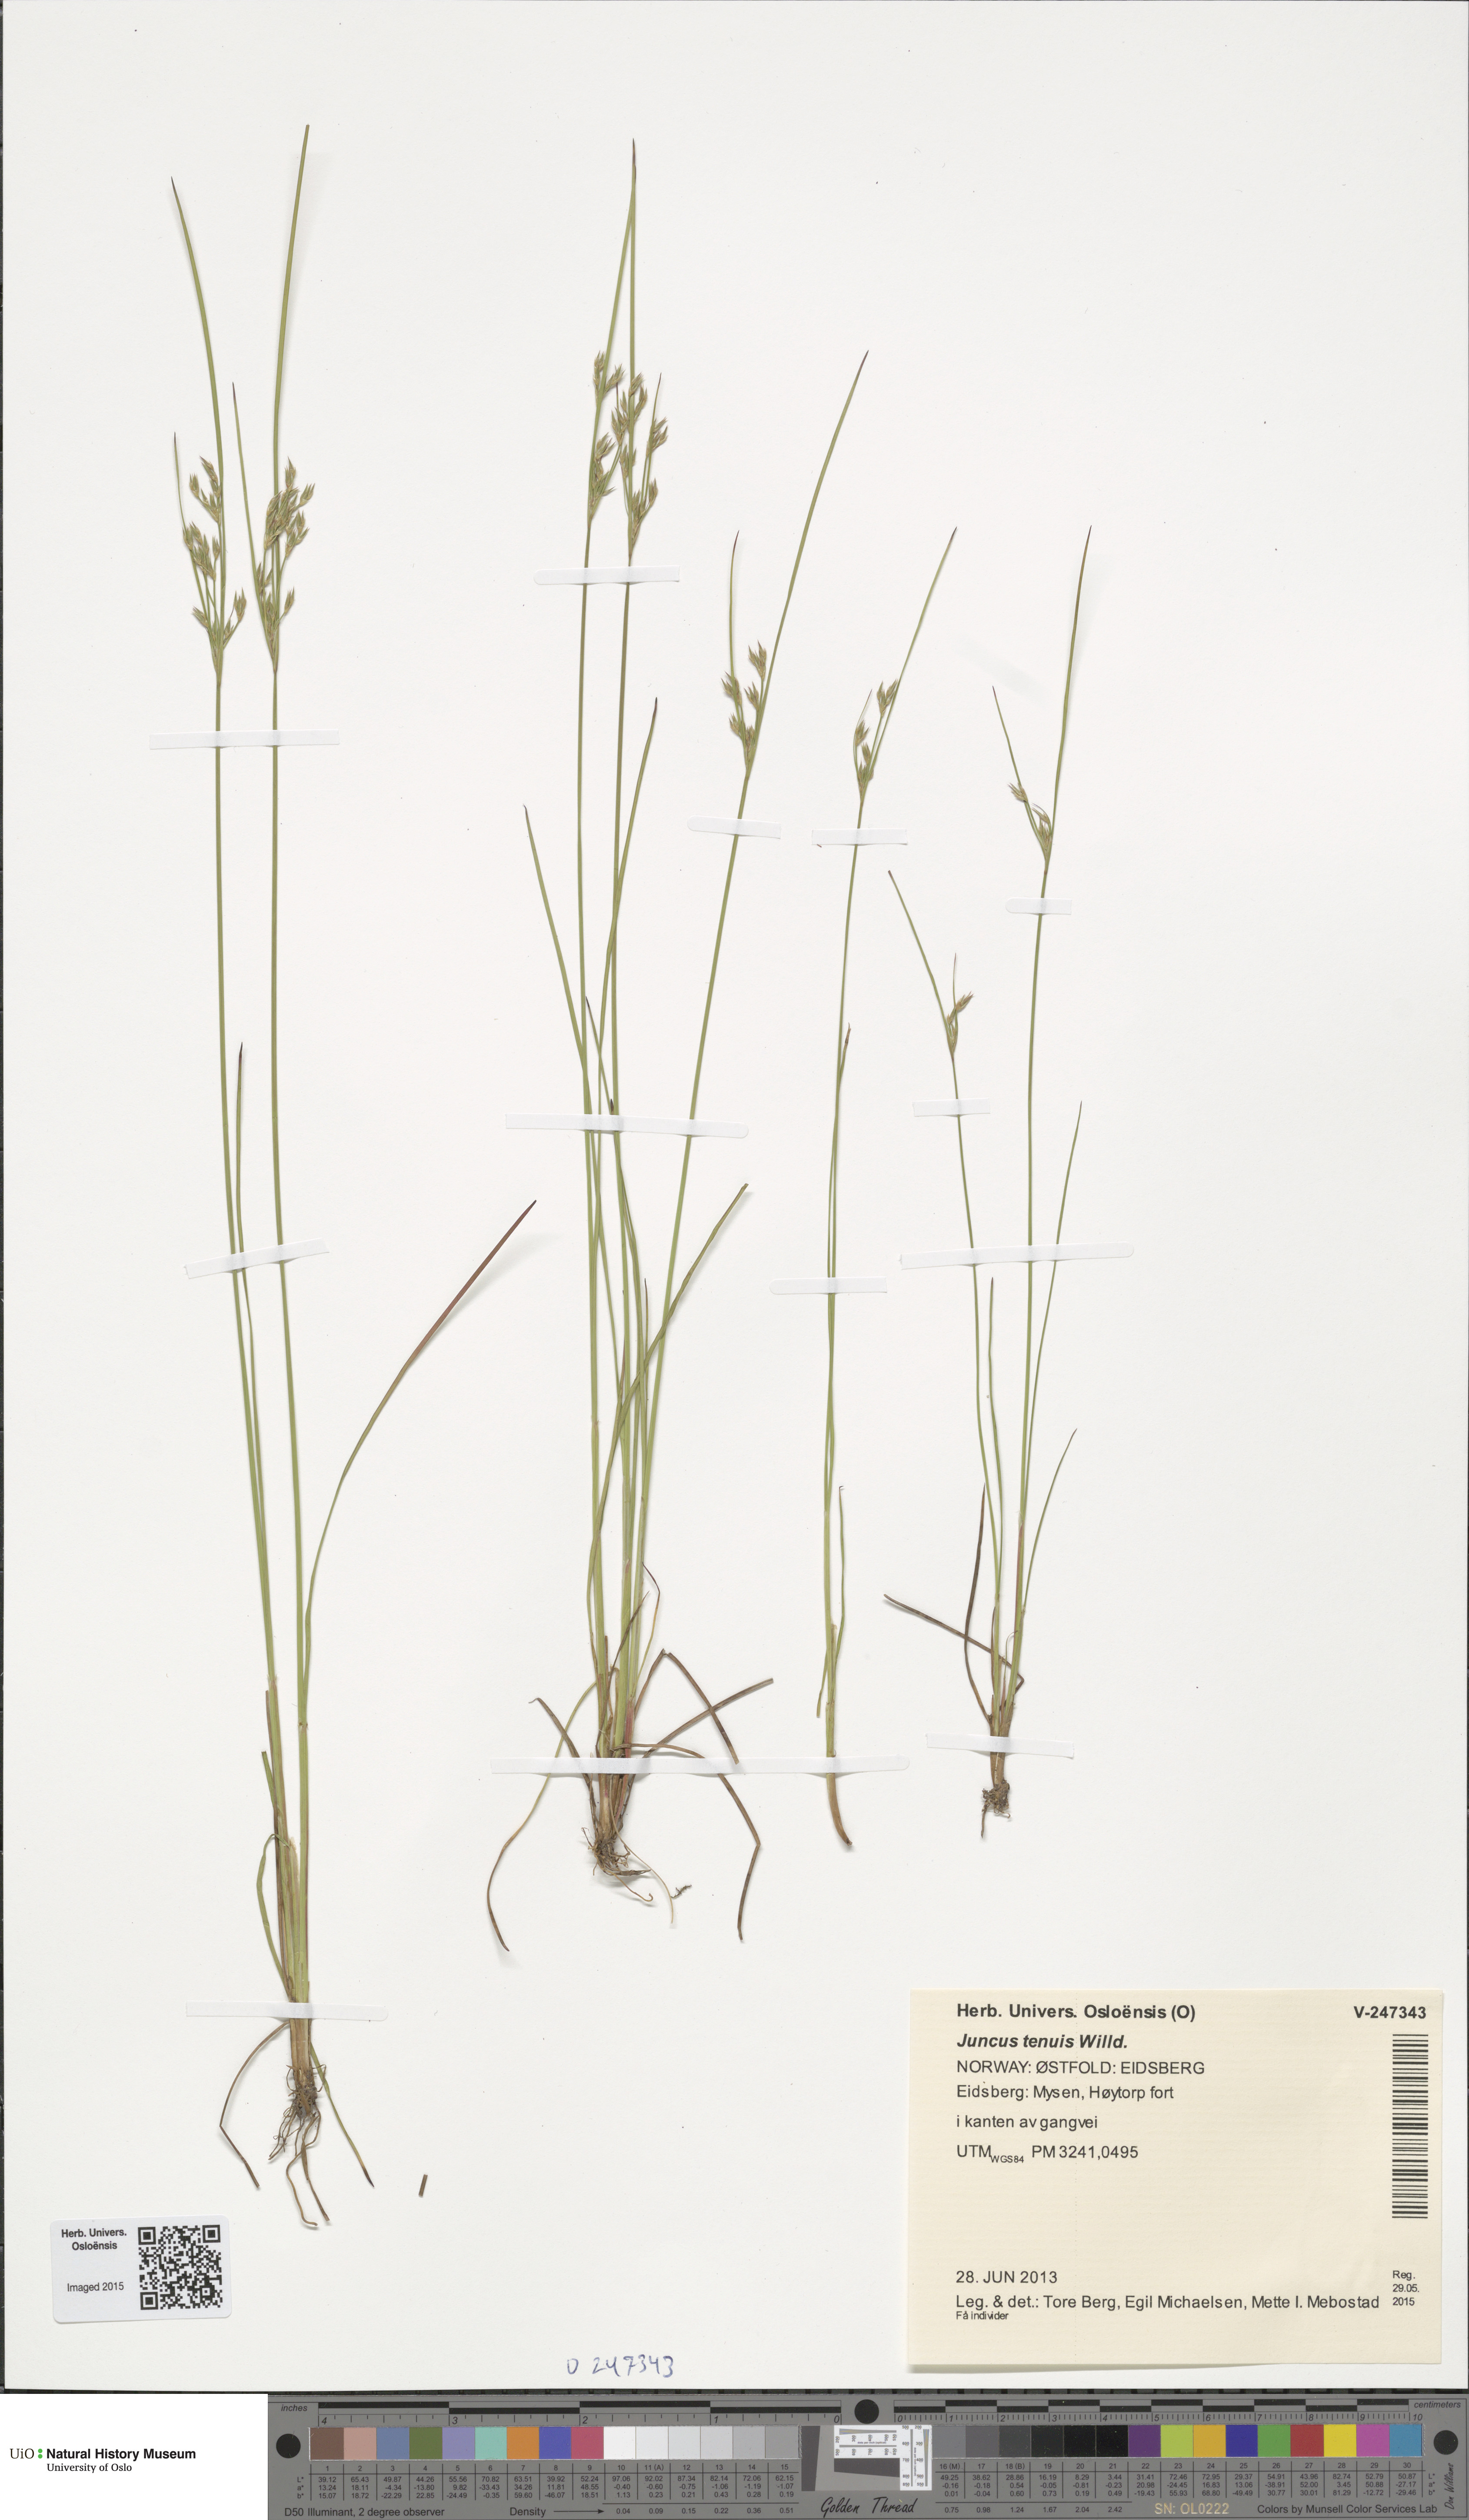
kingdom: Plantae
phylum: Tracheophyta
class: Liliopsida
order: Poales
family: Juncaceae
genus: Juncus
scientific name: Juncus tenuis
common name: Slender rush
